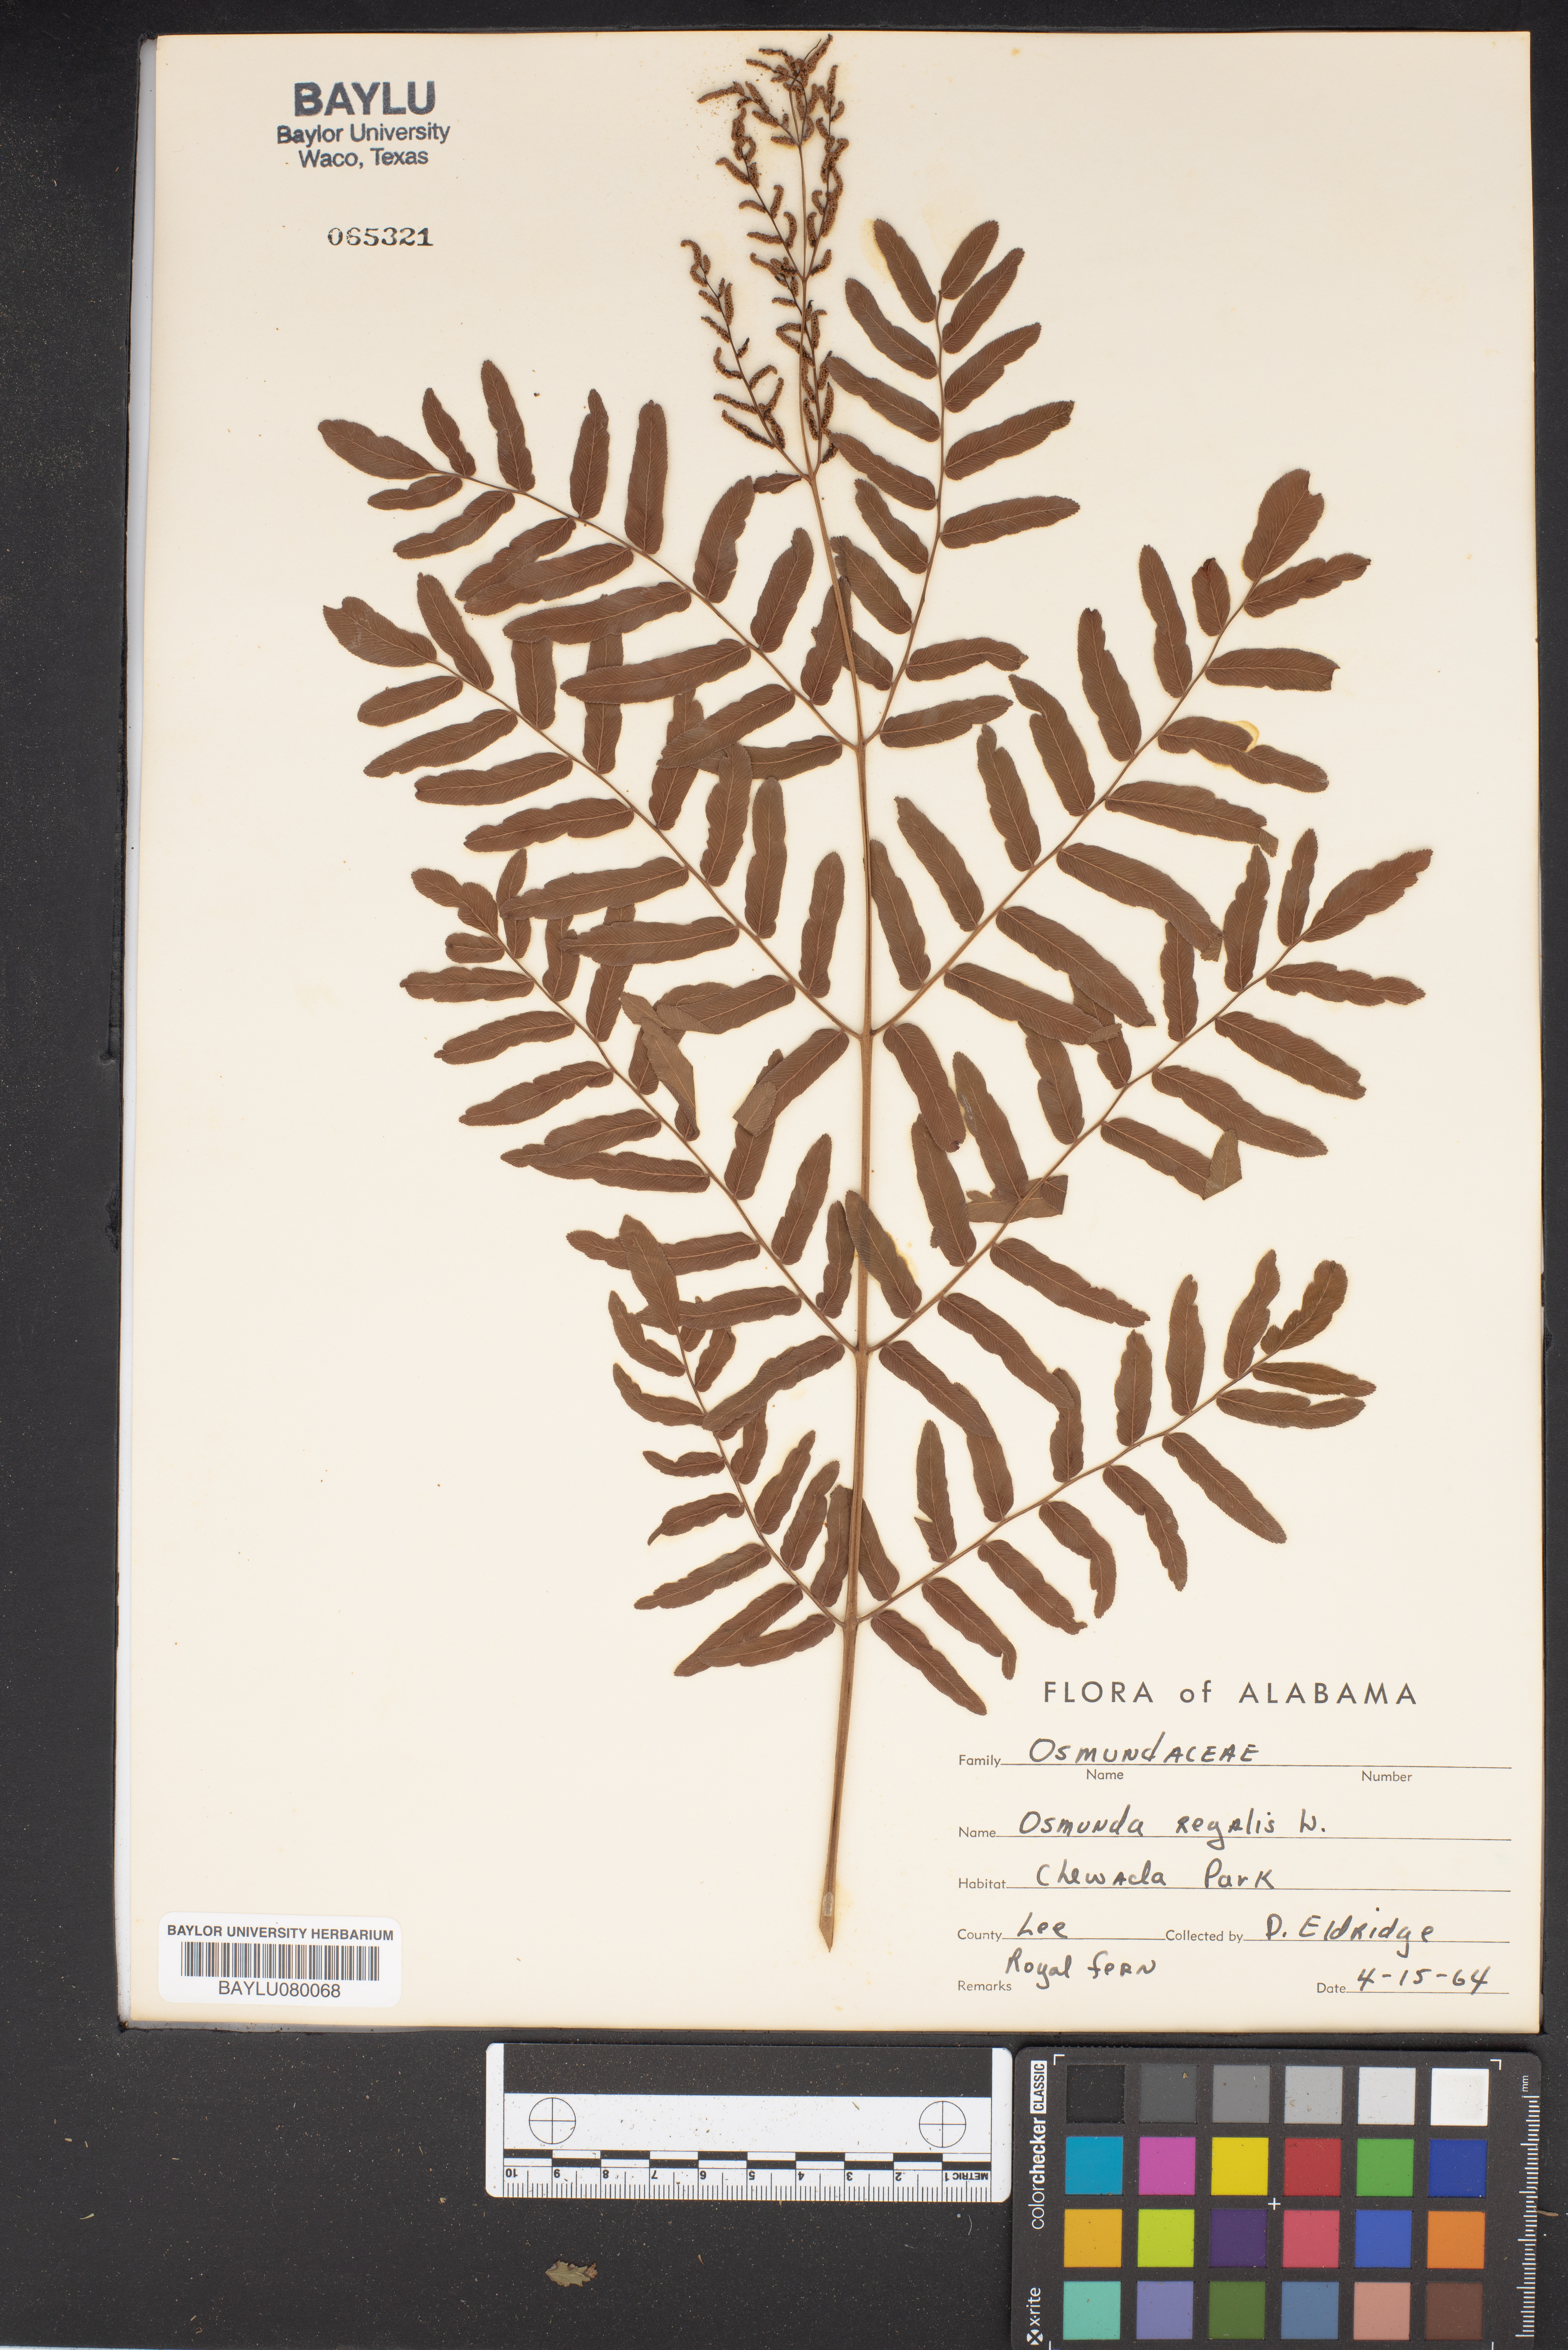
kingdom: Plantae
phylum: Tracheophyta
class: Polypodiopsida
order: Osmundales
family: Osmundaceae
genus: Osmunda
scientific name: Osmunda regalis
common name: Royal fern
